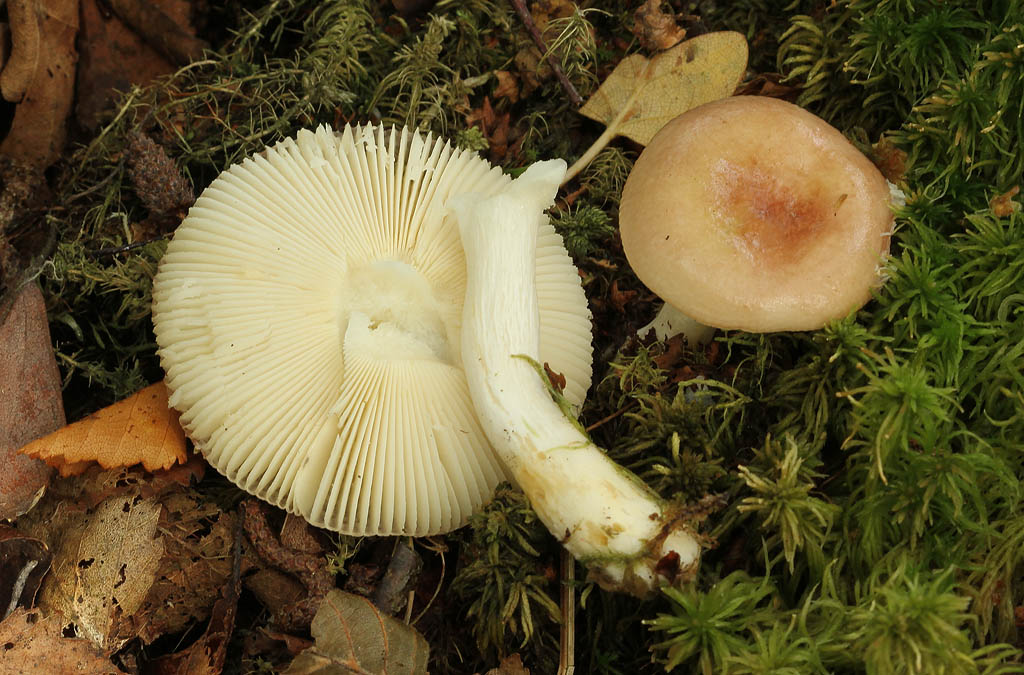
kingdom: Fungi
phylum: Basidiomycota
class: Agaricomycetes
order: Russulales
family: Russulaceae
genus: Russula
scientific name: Russula puellaris
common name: gulstokket skørhat
